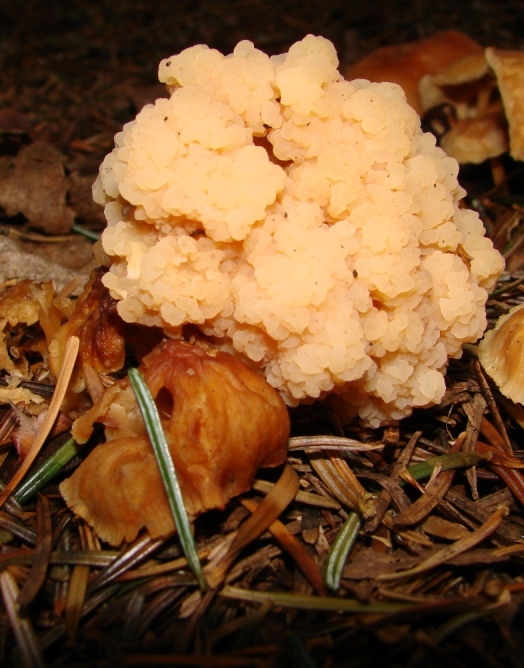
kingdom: Fungi
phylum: Basidiomycota
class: Tremellomycetes
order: Filobasidiales
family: Filobasidiaceae
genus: Syzygospora
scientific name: Syzygospora tumefaciens
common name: fladhatte-snyltehjerne
